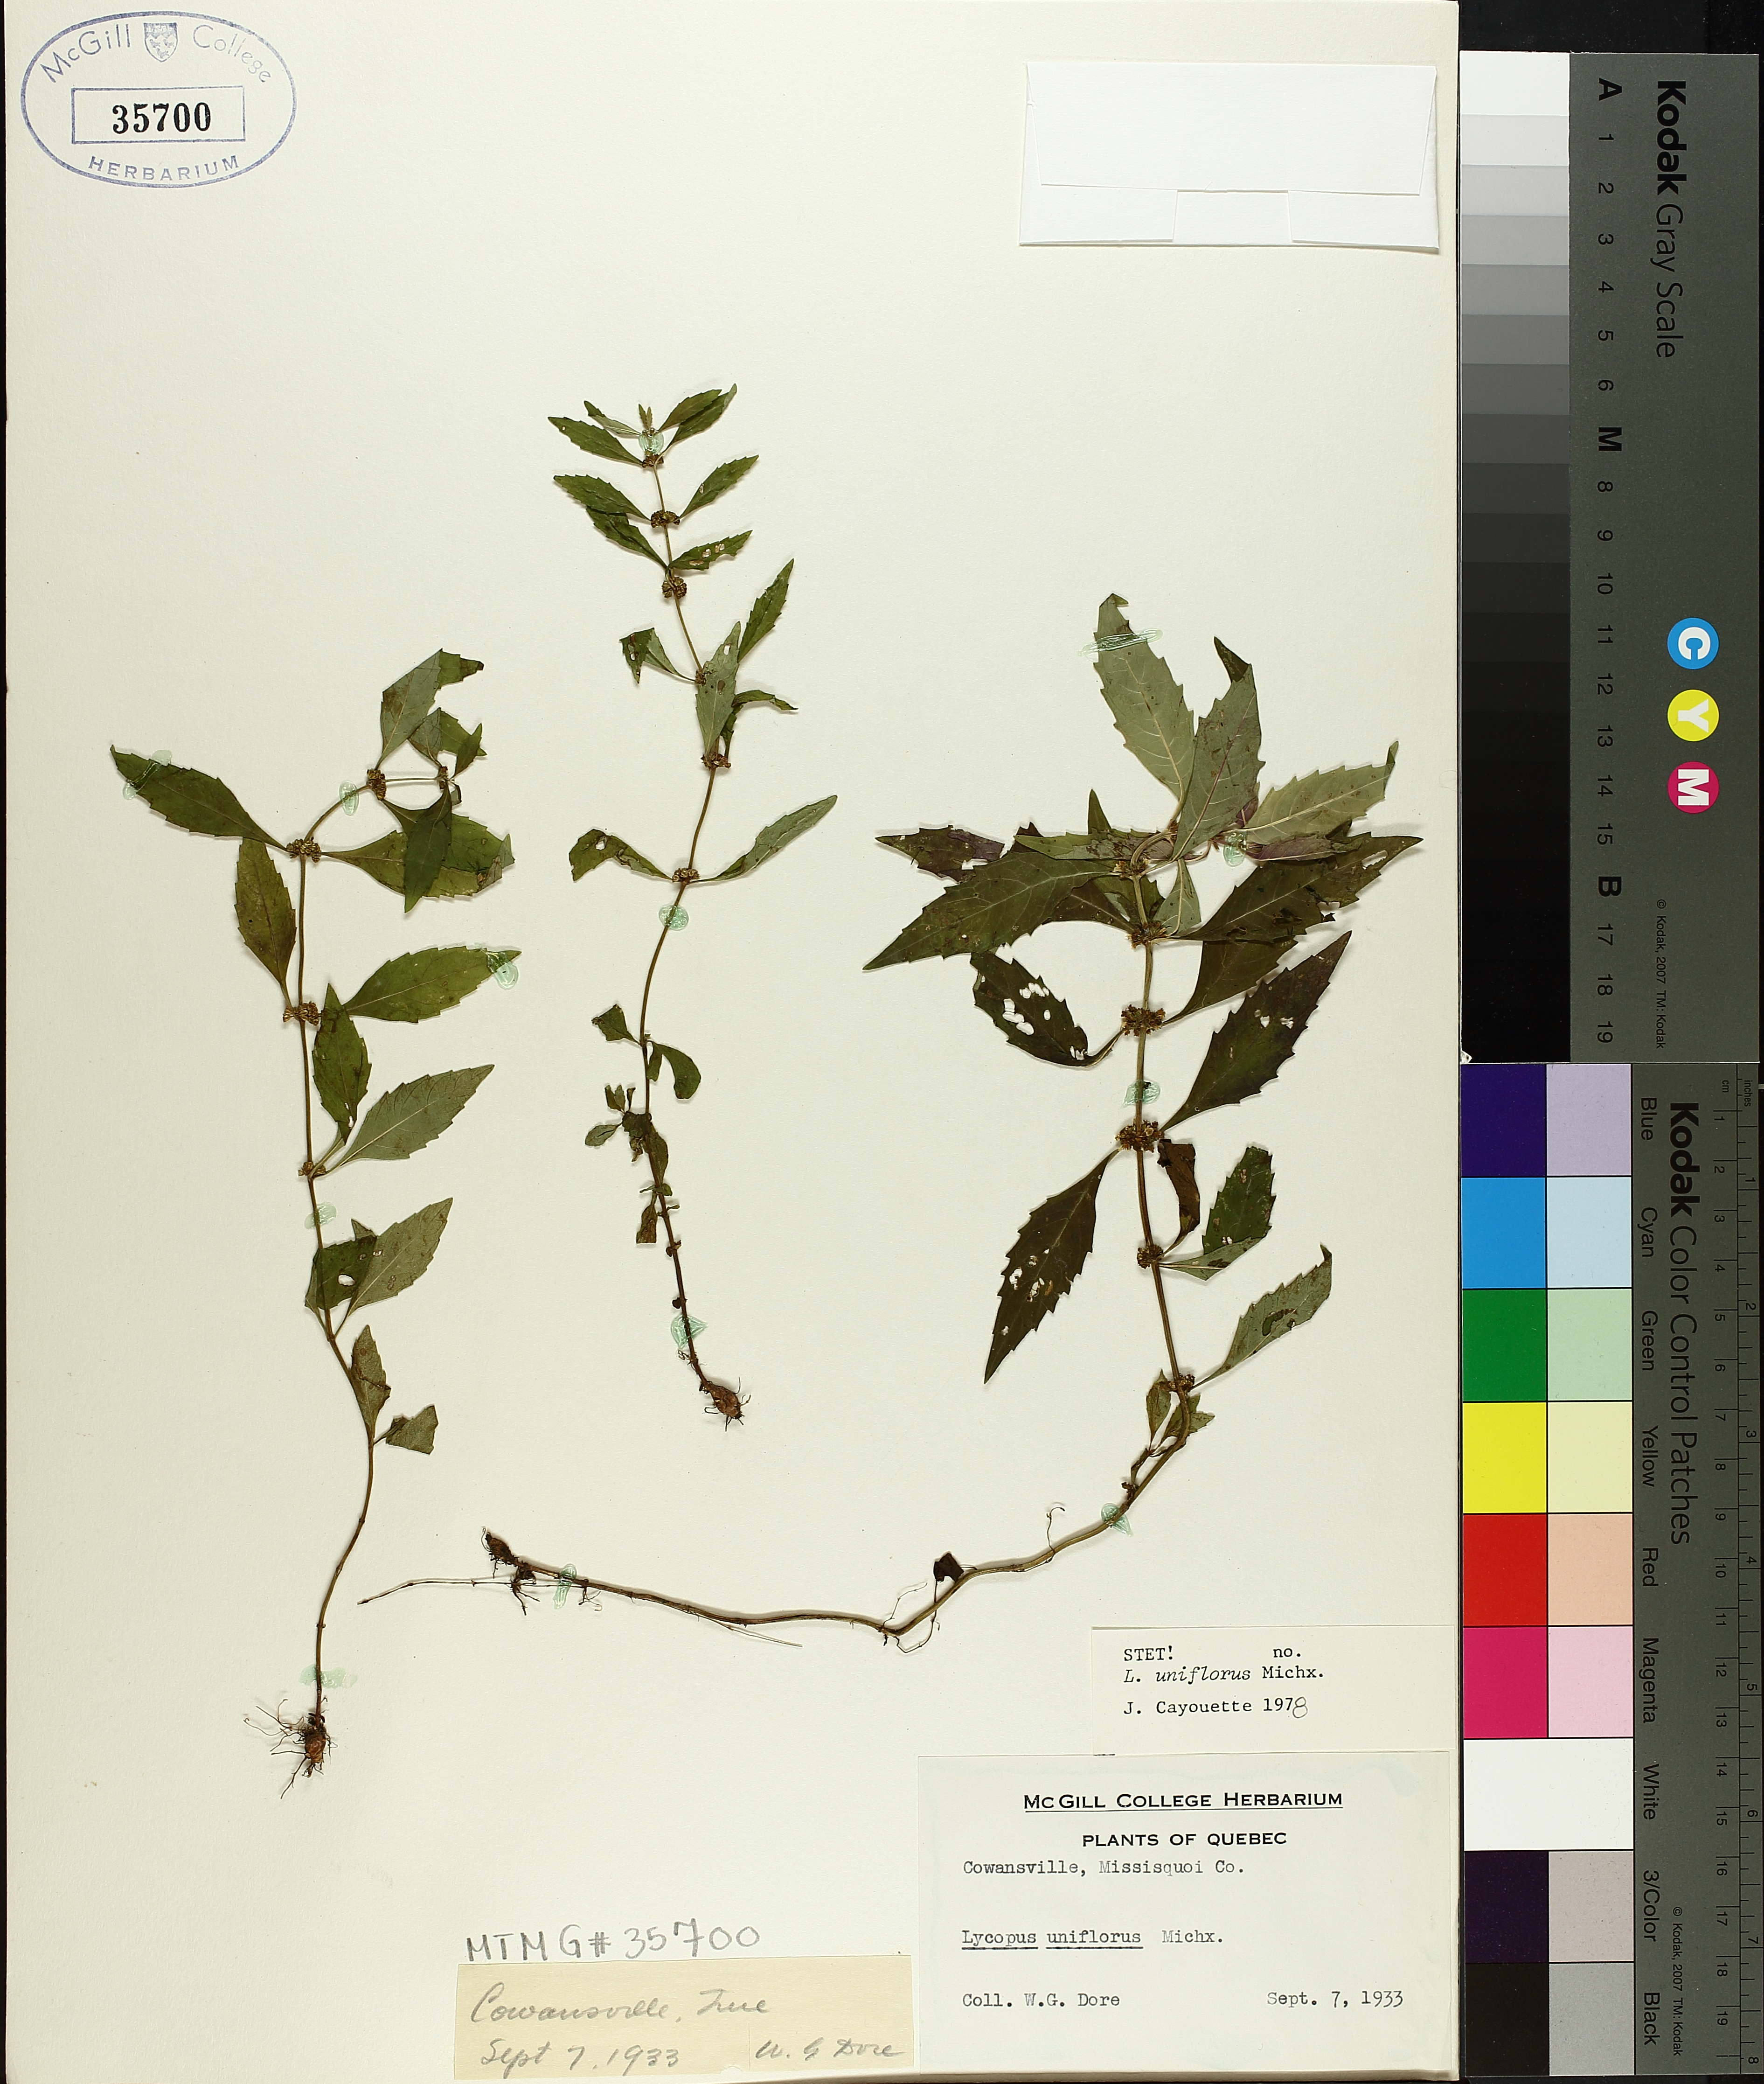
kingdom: Plantae
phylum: Tracheophyta
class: Magnoliopsida
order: Lamiales
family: Lamiaceae
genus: Lycopus
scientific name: Lycopus uniflorus
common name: Northern bugleweed
